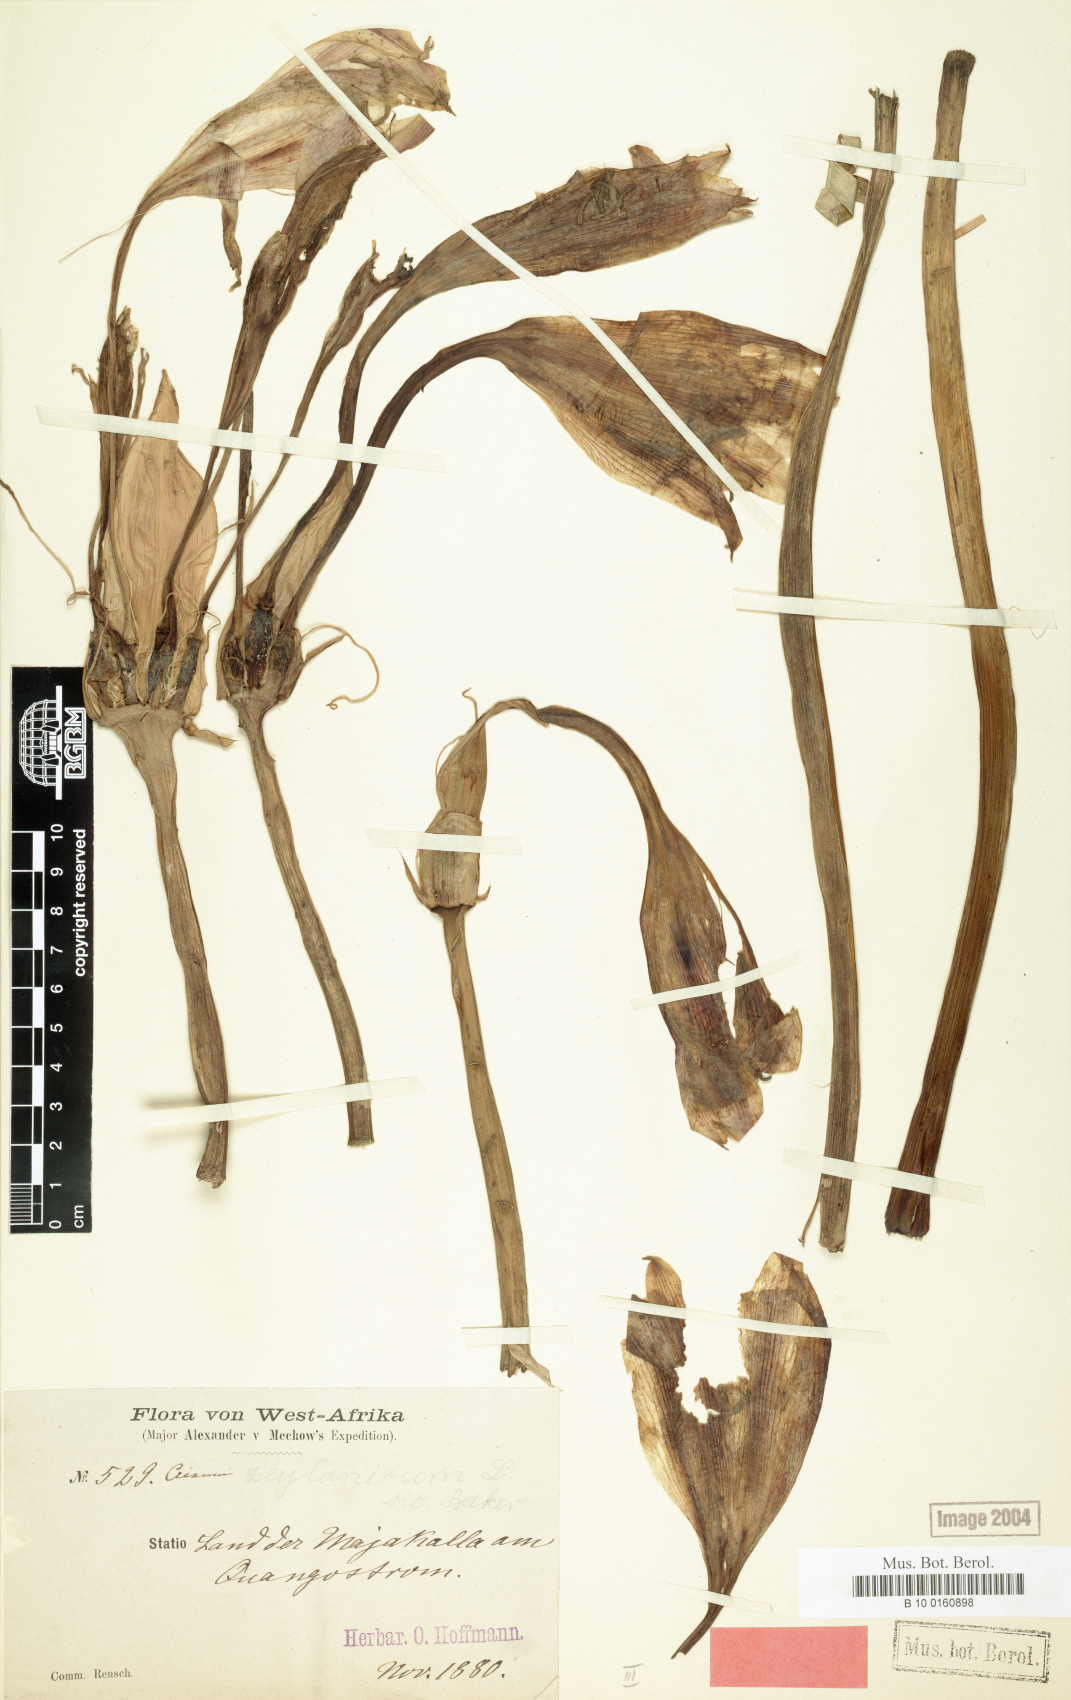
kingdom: Plantae
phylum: Tracheophyta
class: Liliopsida
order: Asparagales
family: Amaryllidaceae
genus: Crinum
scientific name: Crinum majakallense
